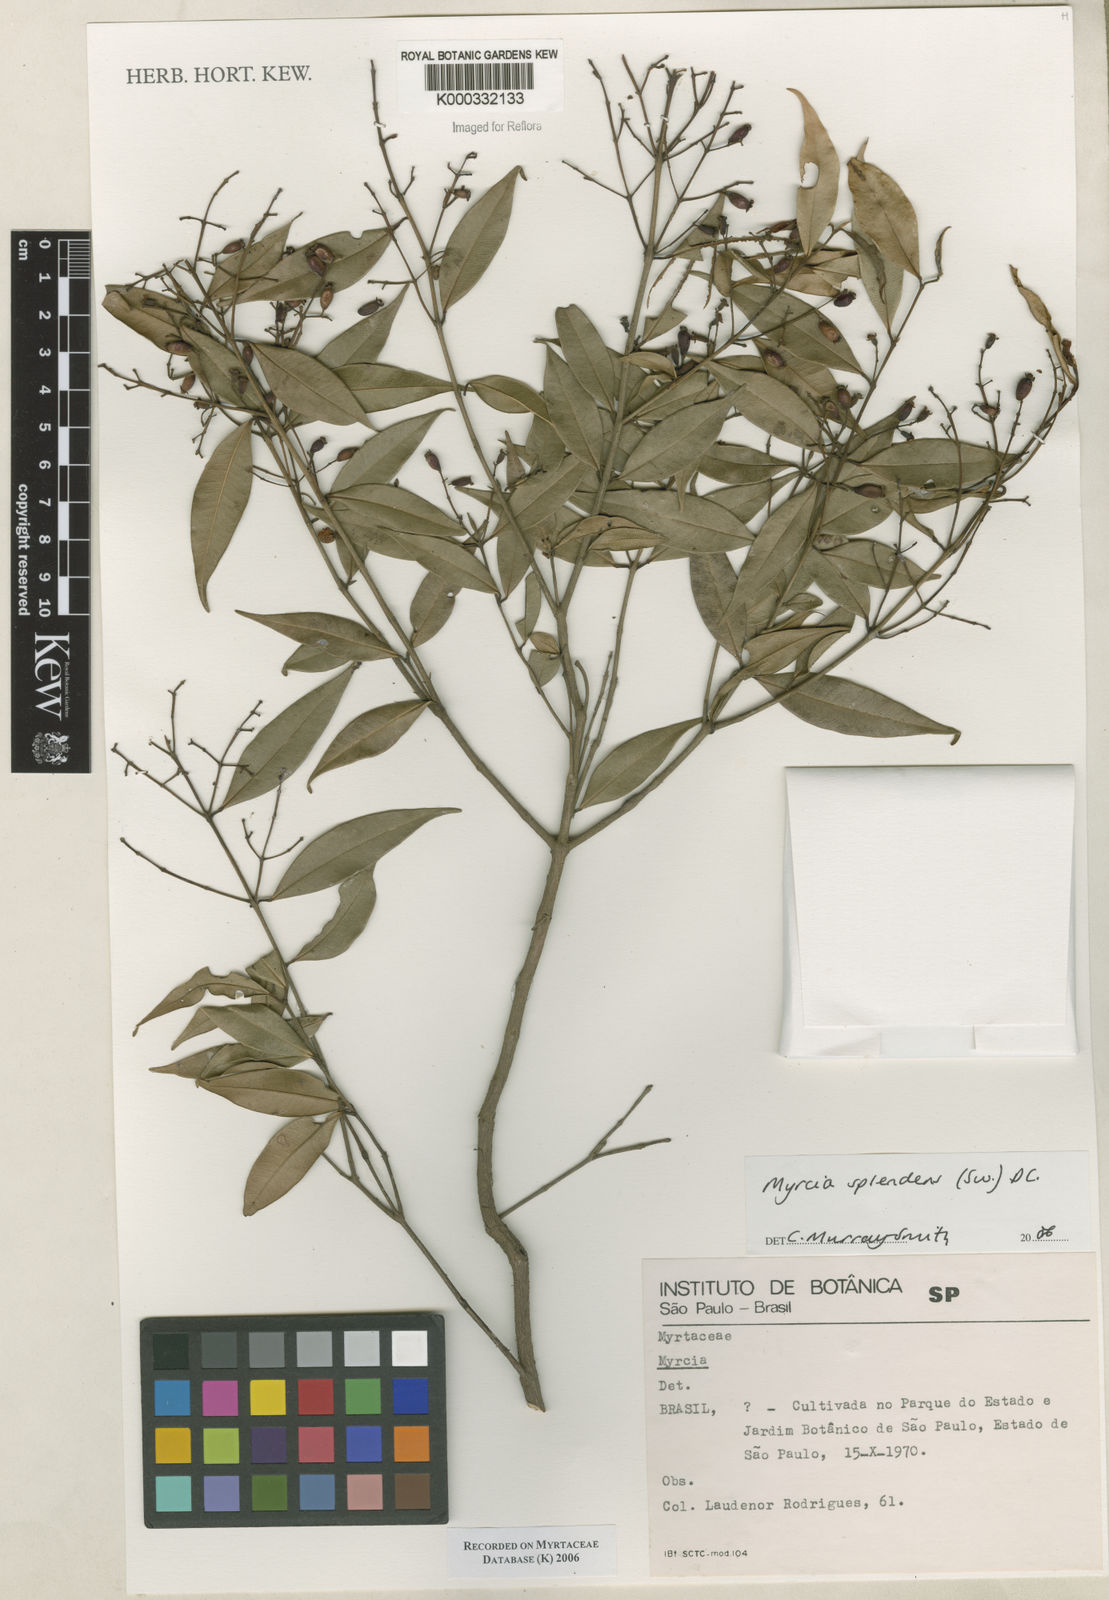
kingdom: Plantae
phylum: Tracheophyta
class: Magnoliopsida
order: Myrtales
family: Myrtaceae
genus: Myrcia
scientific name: Myrcia splendens
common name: Surinam cherry
